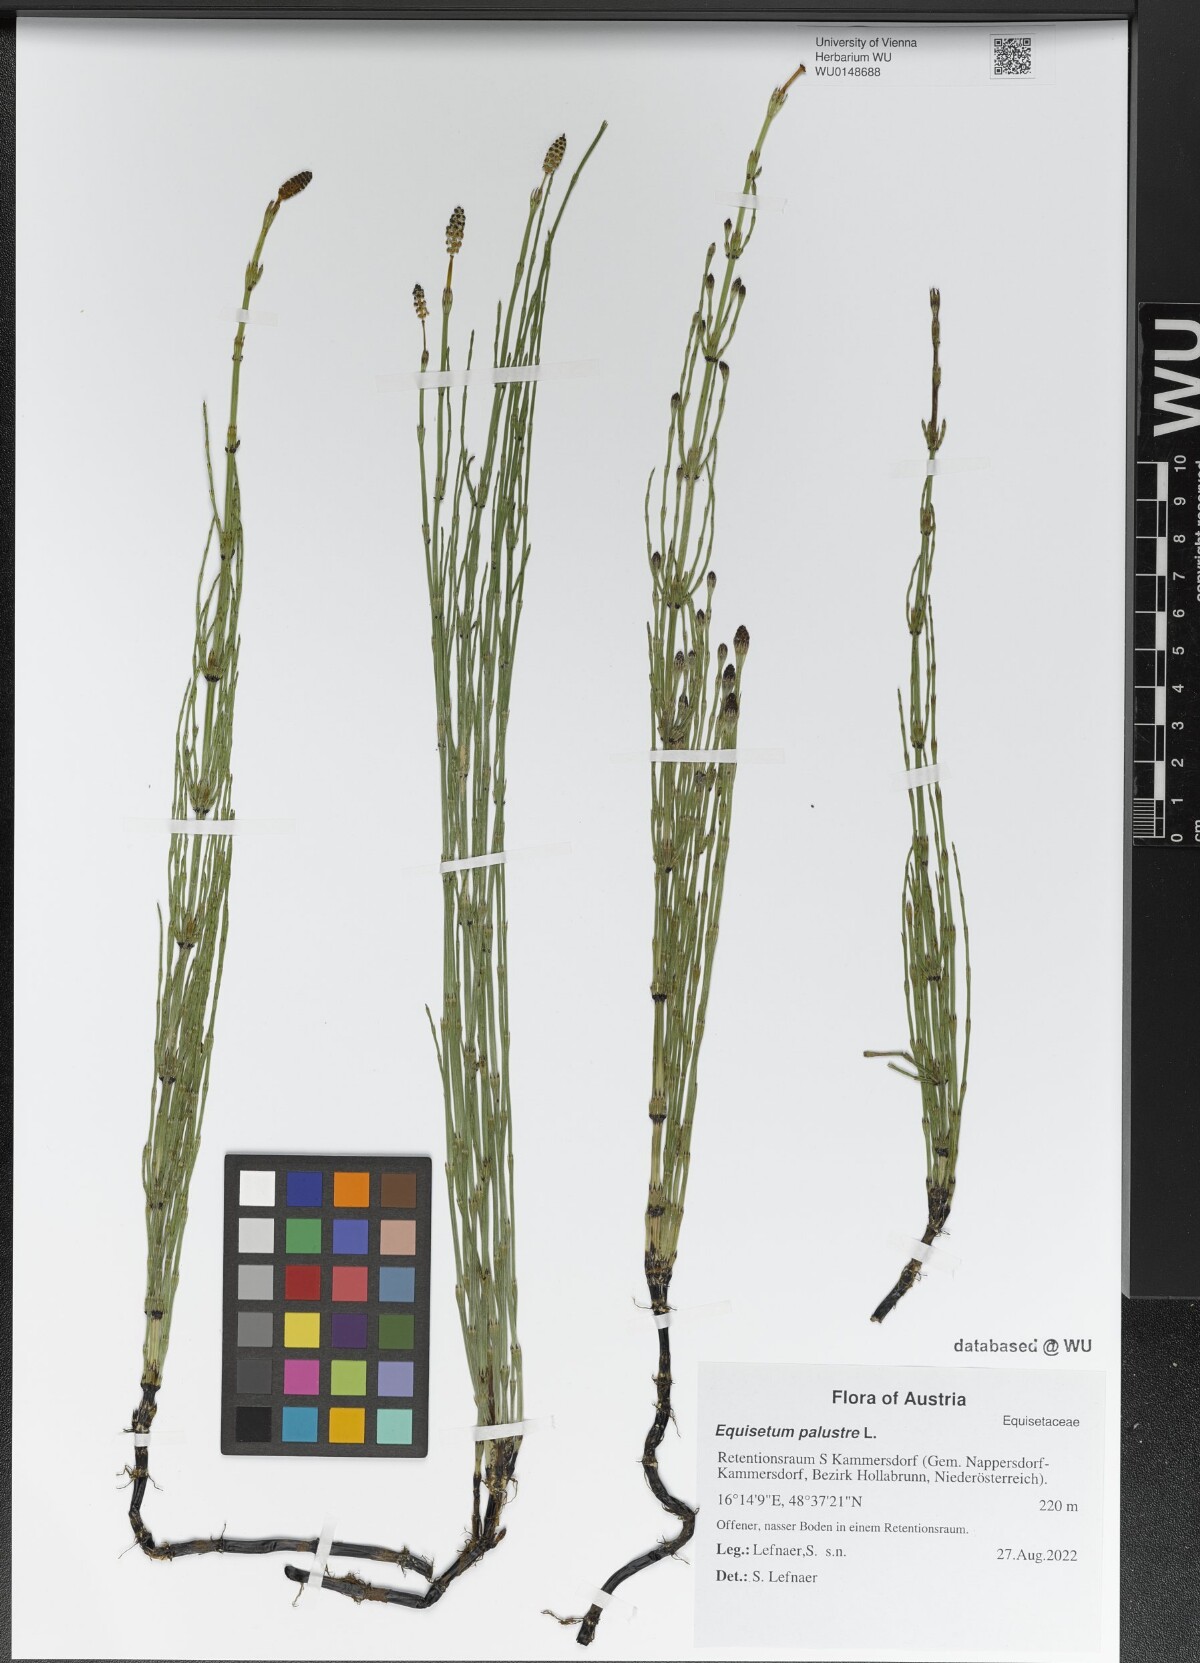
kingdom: Plantae
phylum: Tracheophyta
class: Polypodiopsida
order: Equisetales
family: Equisetaceae
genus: Equisetum
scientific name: Equisetum palustre
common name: Marsh horsetail
